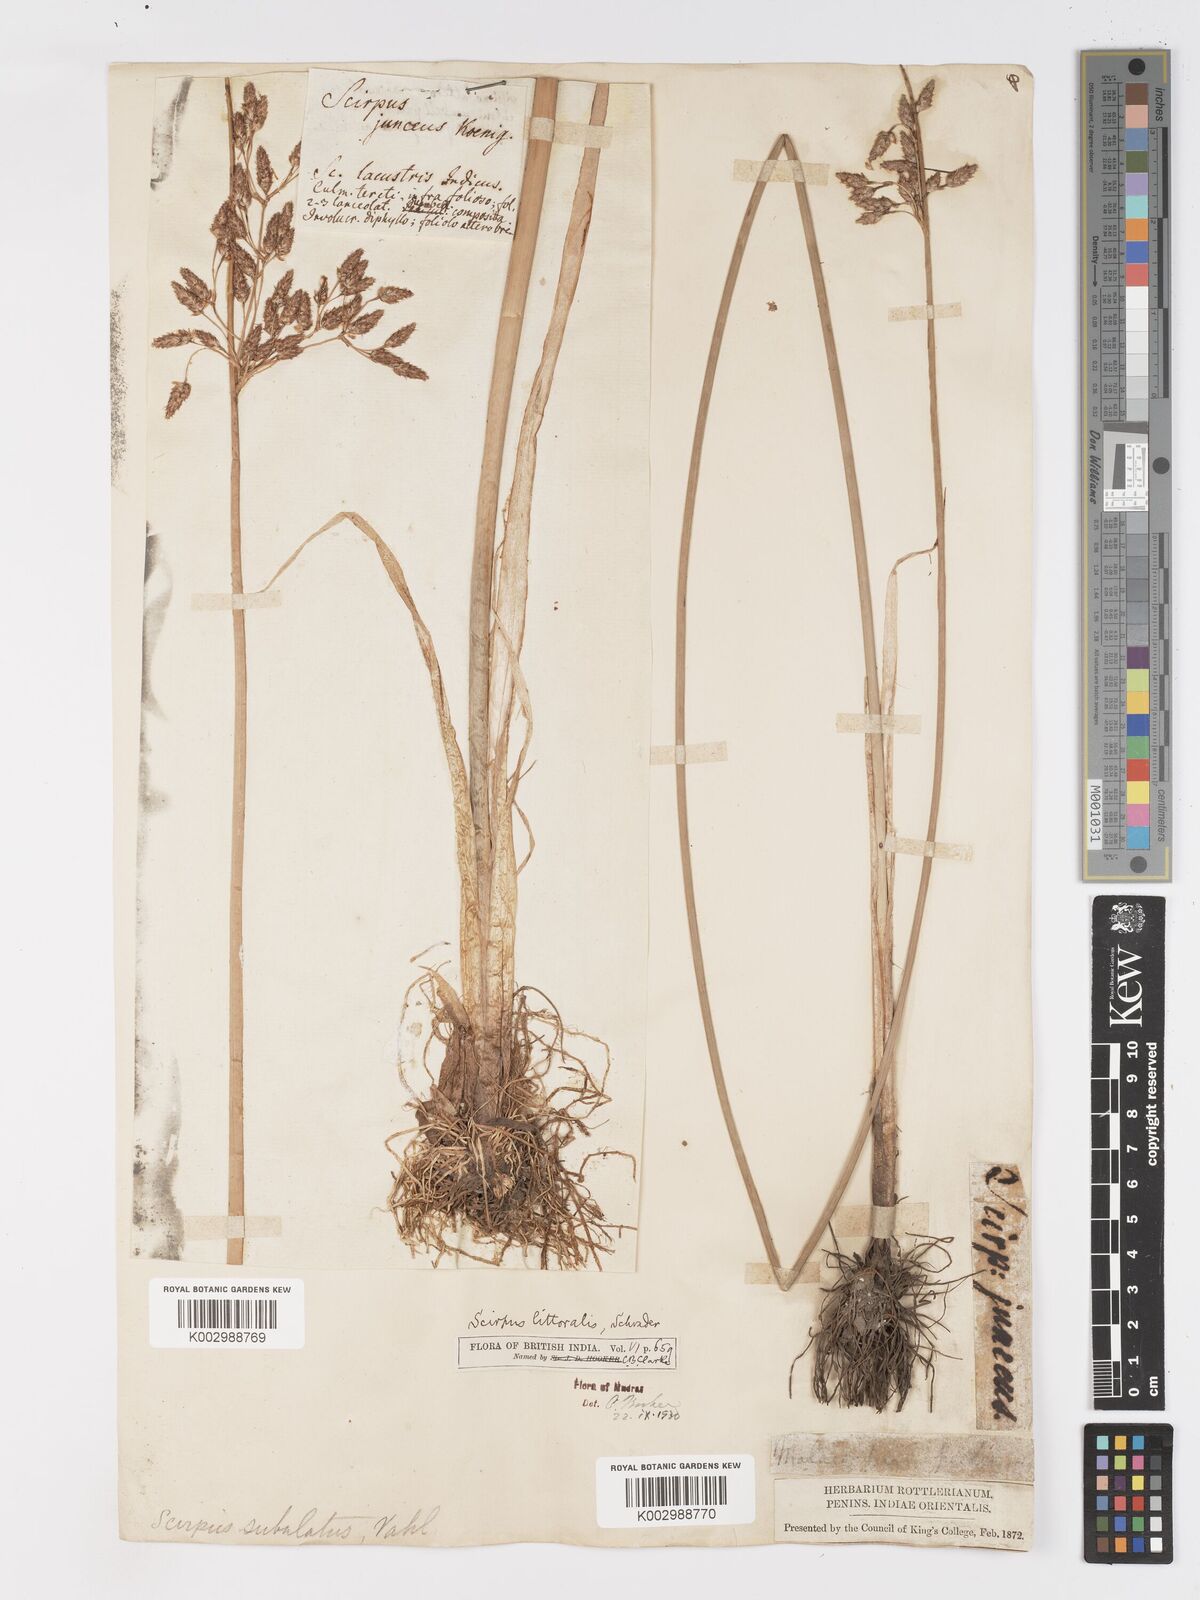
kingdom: Plantae
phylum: Tracheophyta
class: Liliopsida
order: Poales
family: Cyperaceae
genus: Schoenoplectus
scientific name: Schoenoplectus litoralis
